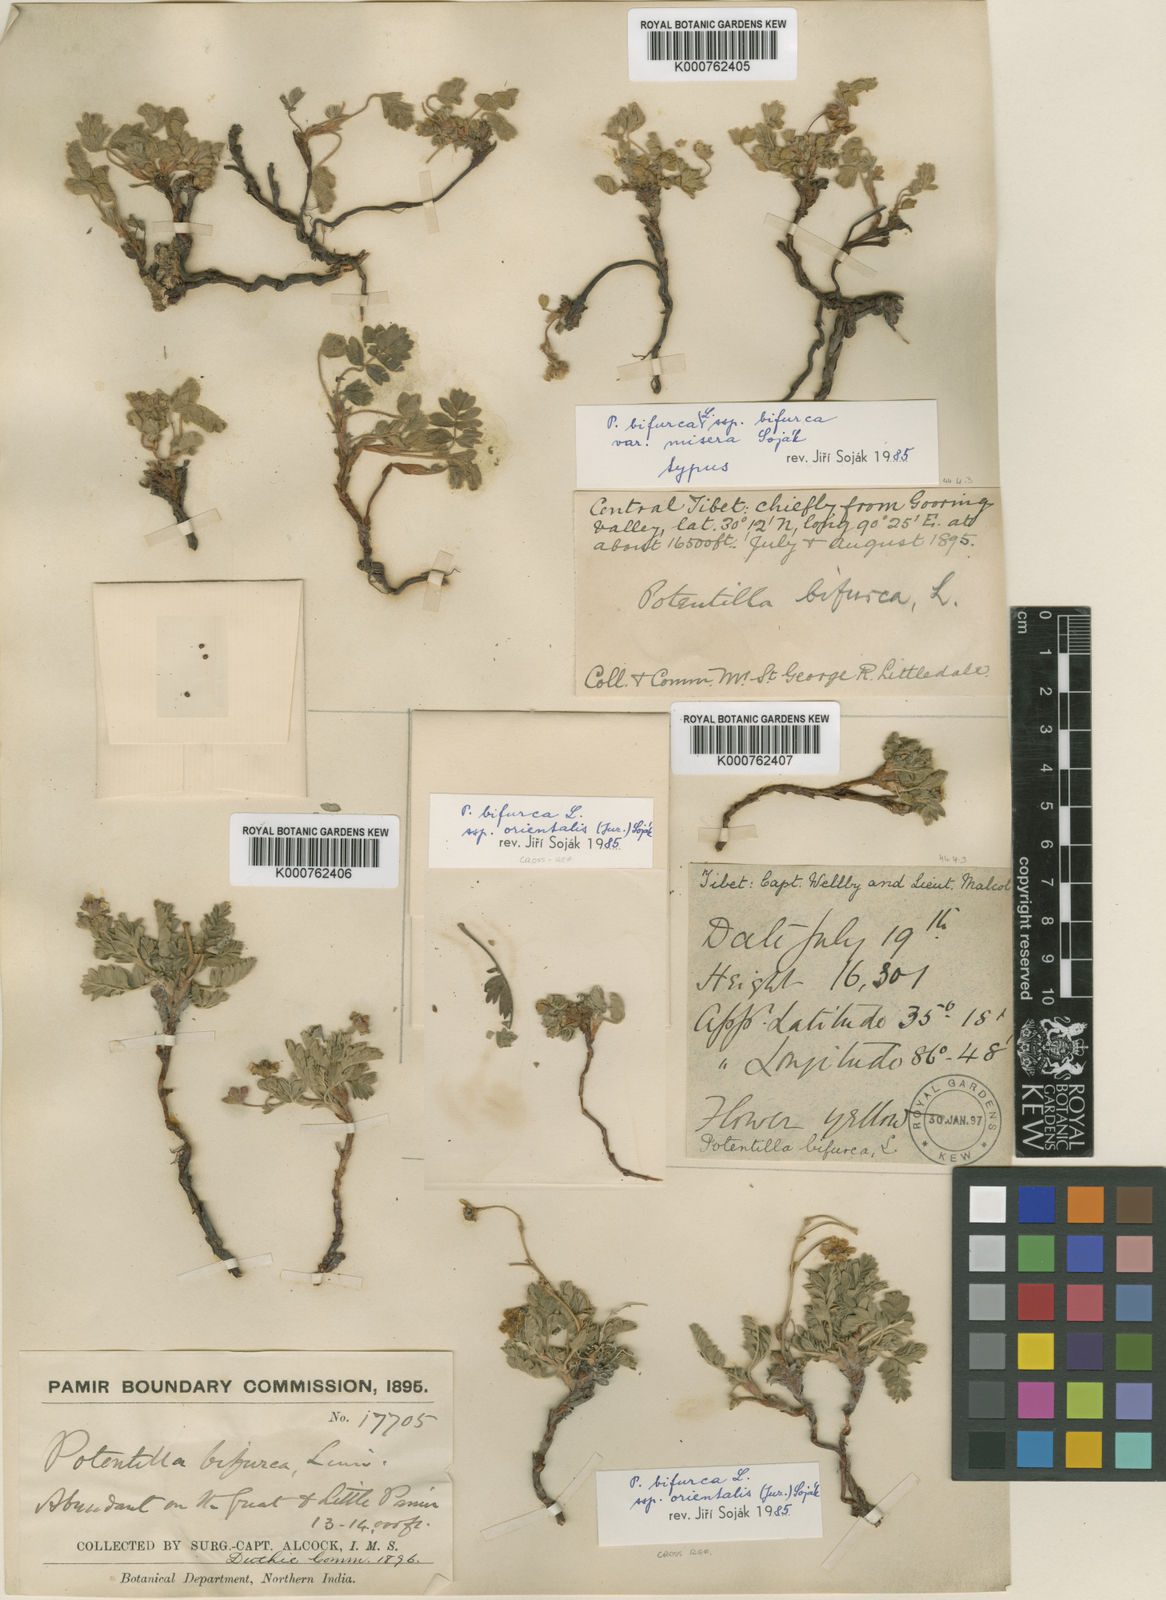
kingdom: Plantae
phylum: Tracheophyta
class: Magnoliopsida
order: Rosales
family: Rosaceae
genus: Sibbaldianthe
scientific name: Sibbaldianthe bifurca
